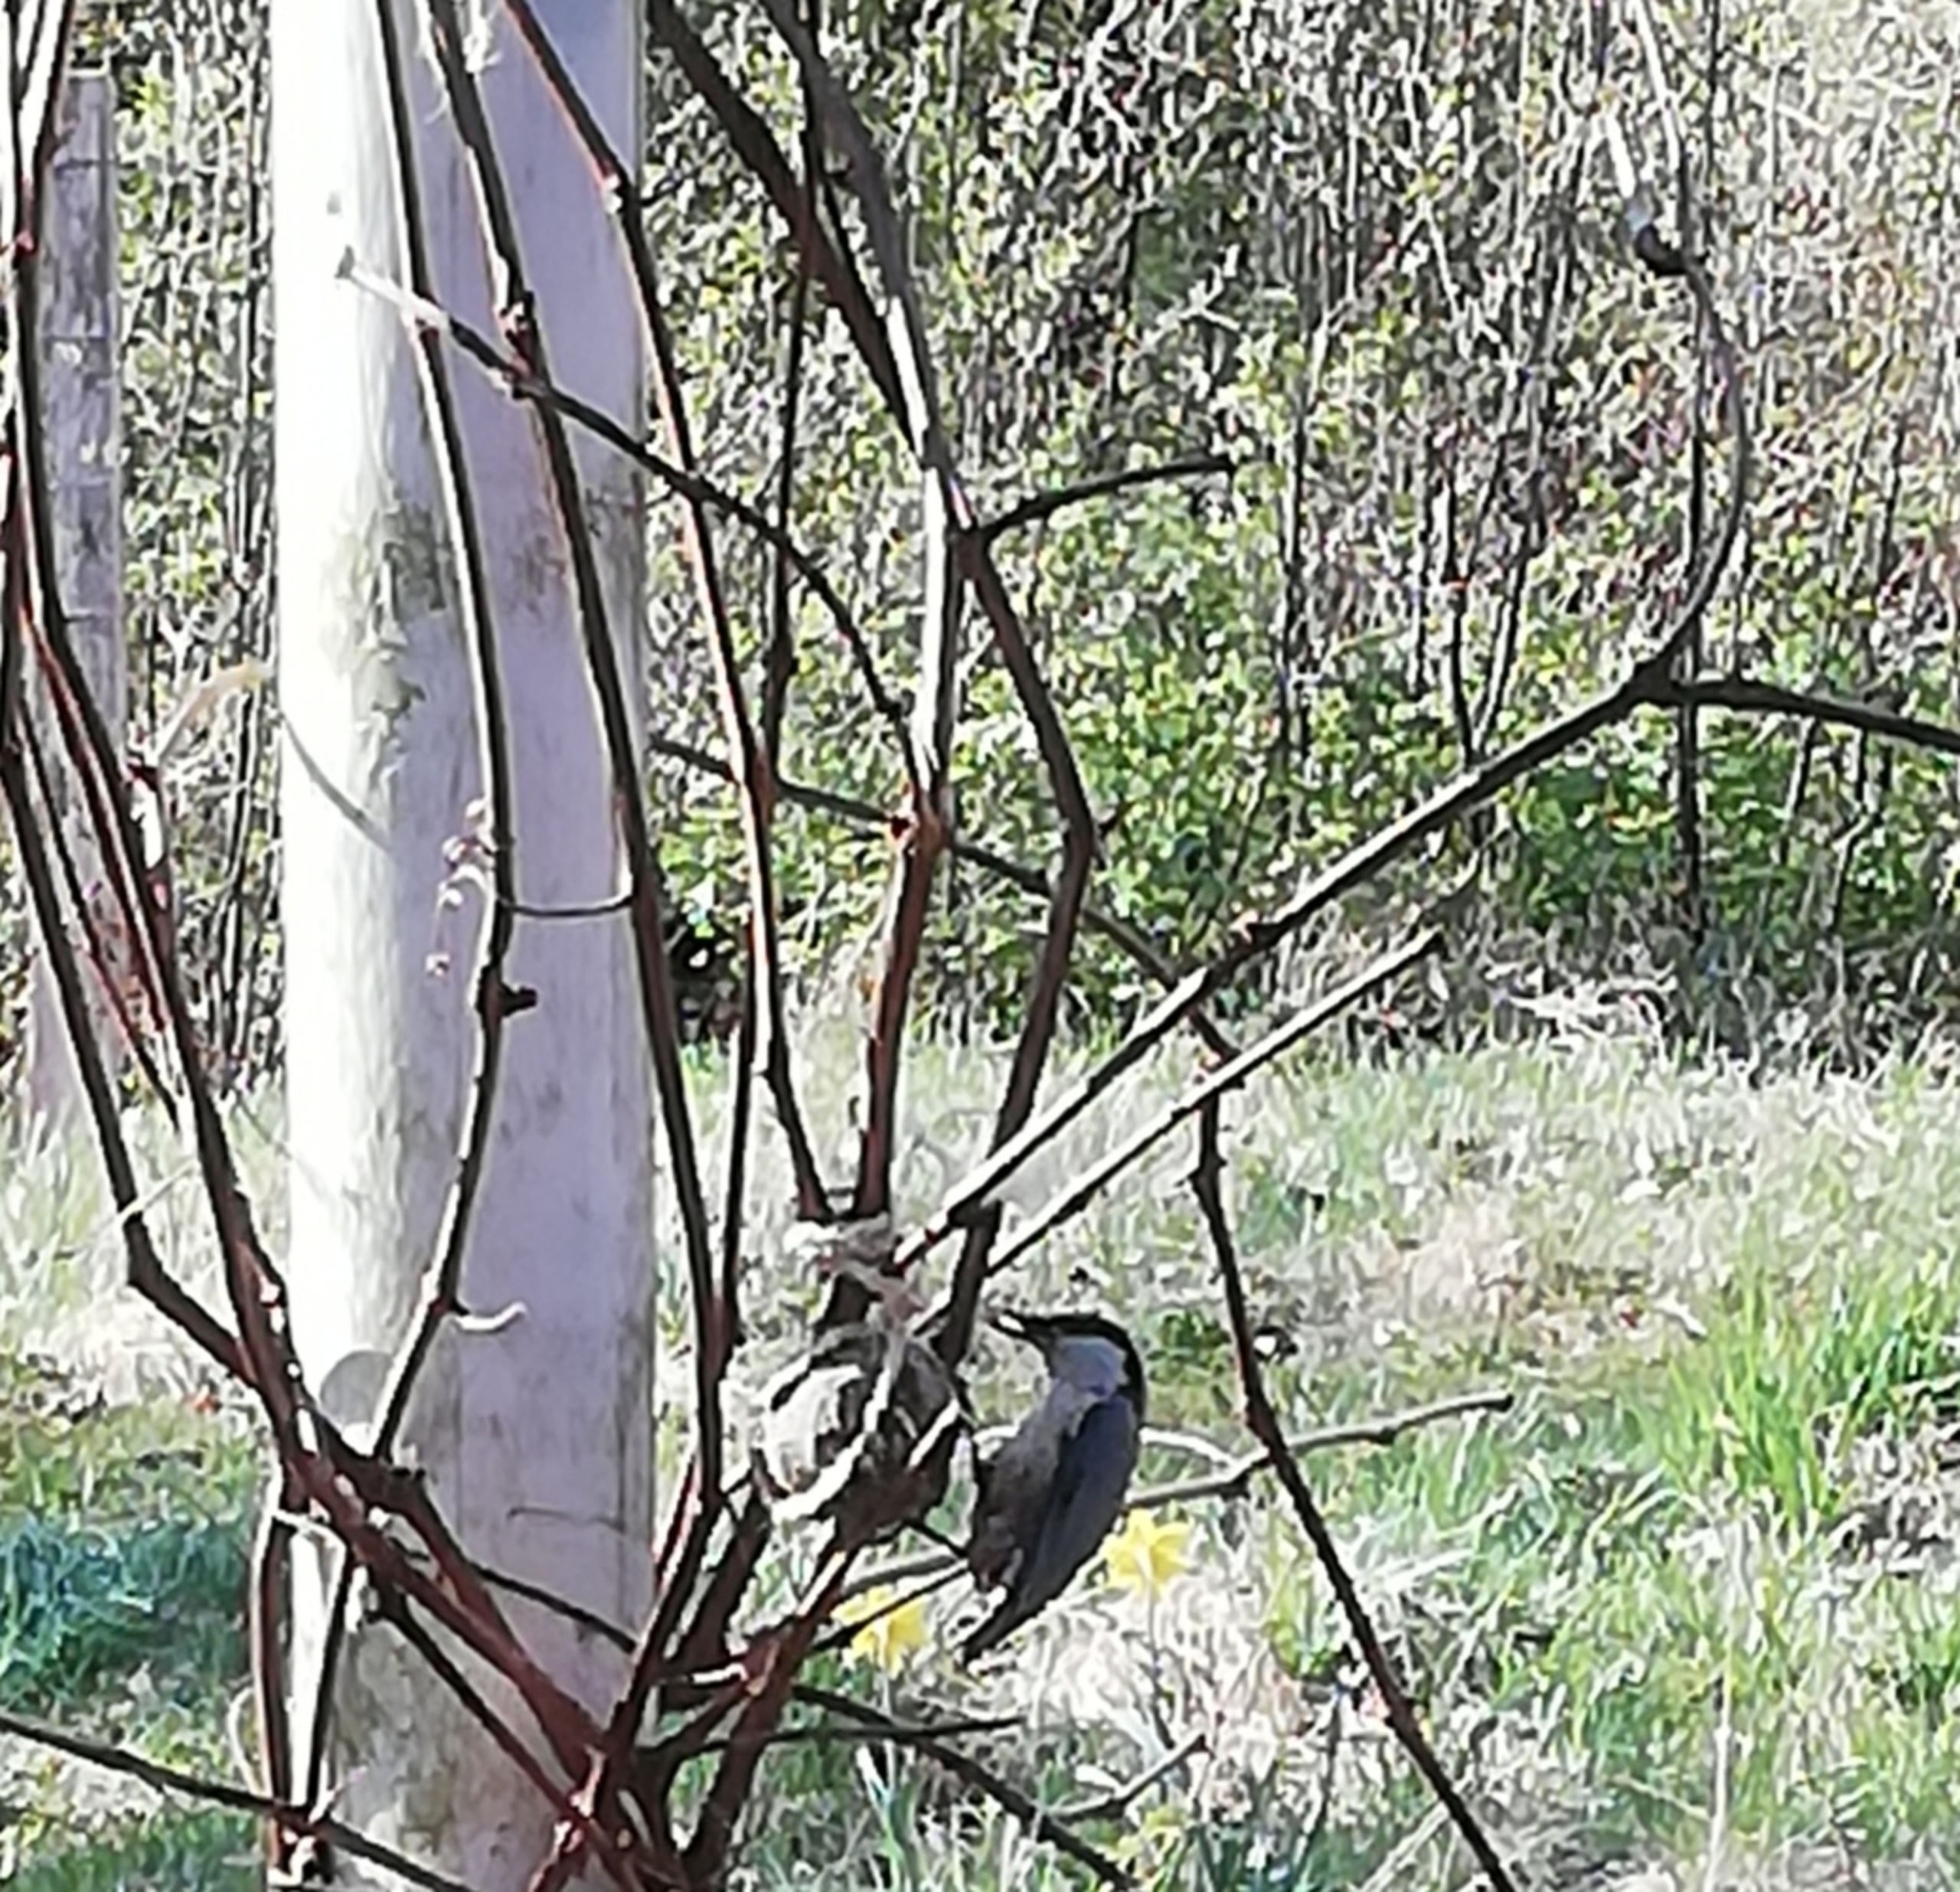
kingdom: Animalia
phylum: Chordata
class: Aves
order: Passeriformes
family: Sittidae
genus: Sitta
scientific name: Sitta europaea
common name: Spætmejse
